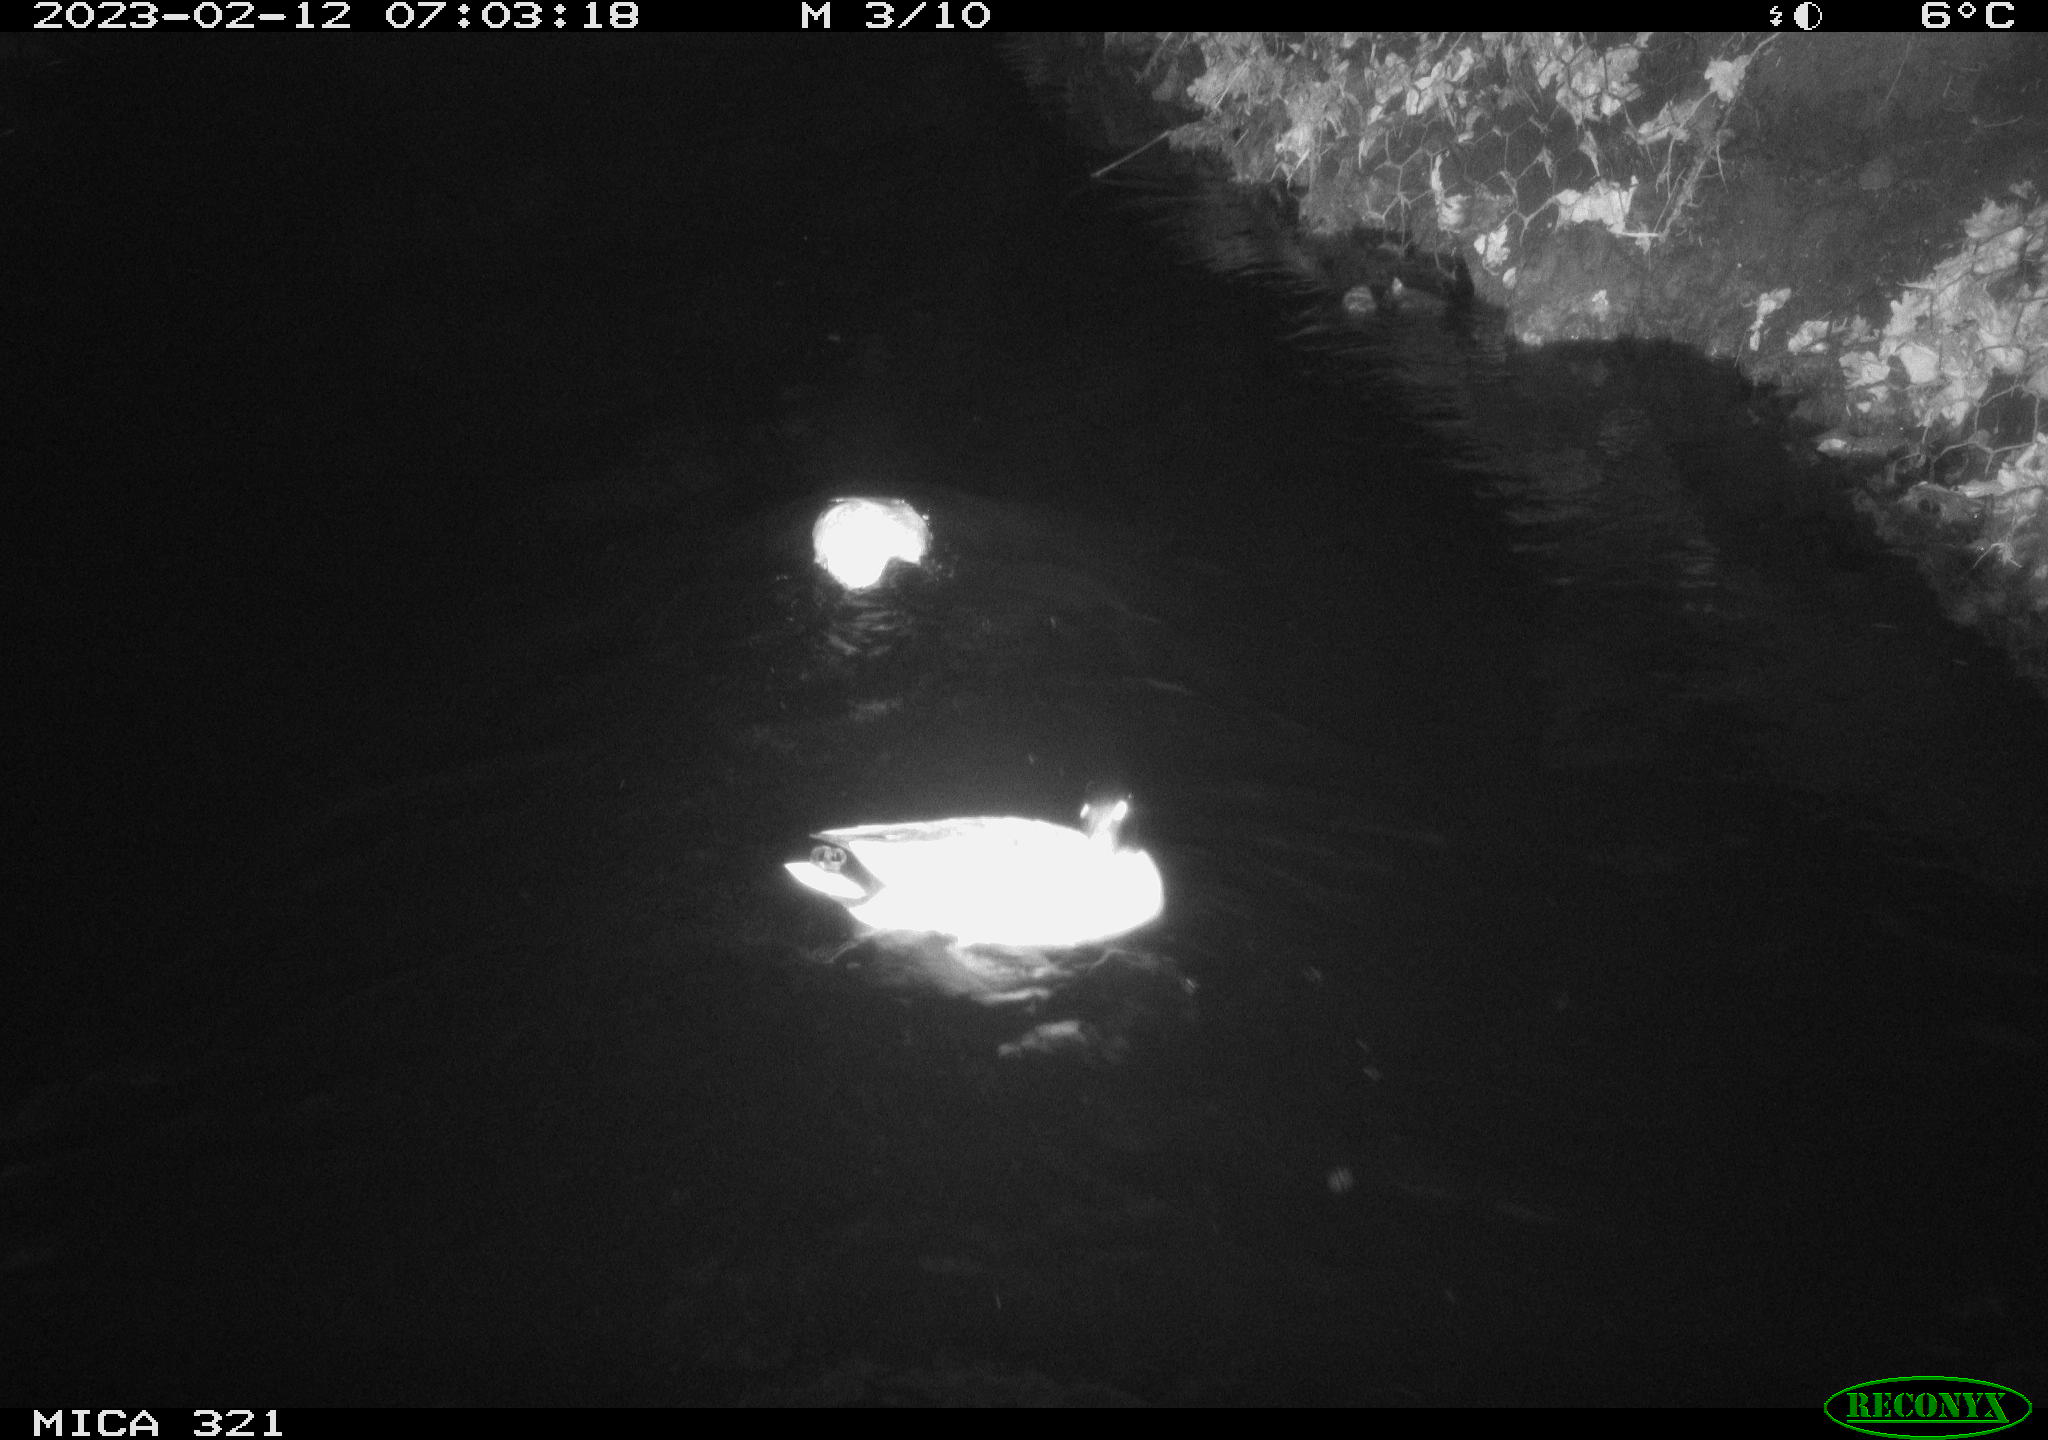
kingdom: Animalia
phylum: Chordata
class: Aves
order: Anseriformes
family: Anatidae
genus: Anas
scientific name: Anas
